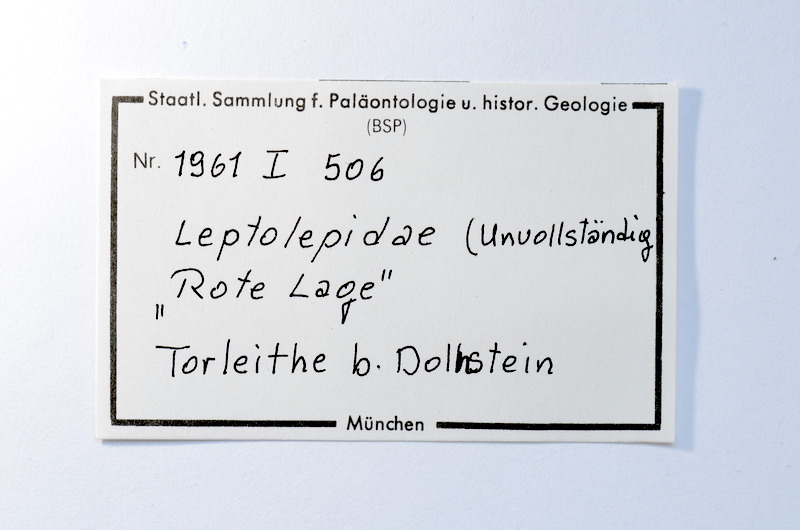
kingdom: Animalia
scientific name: Animalia
